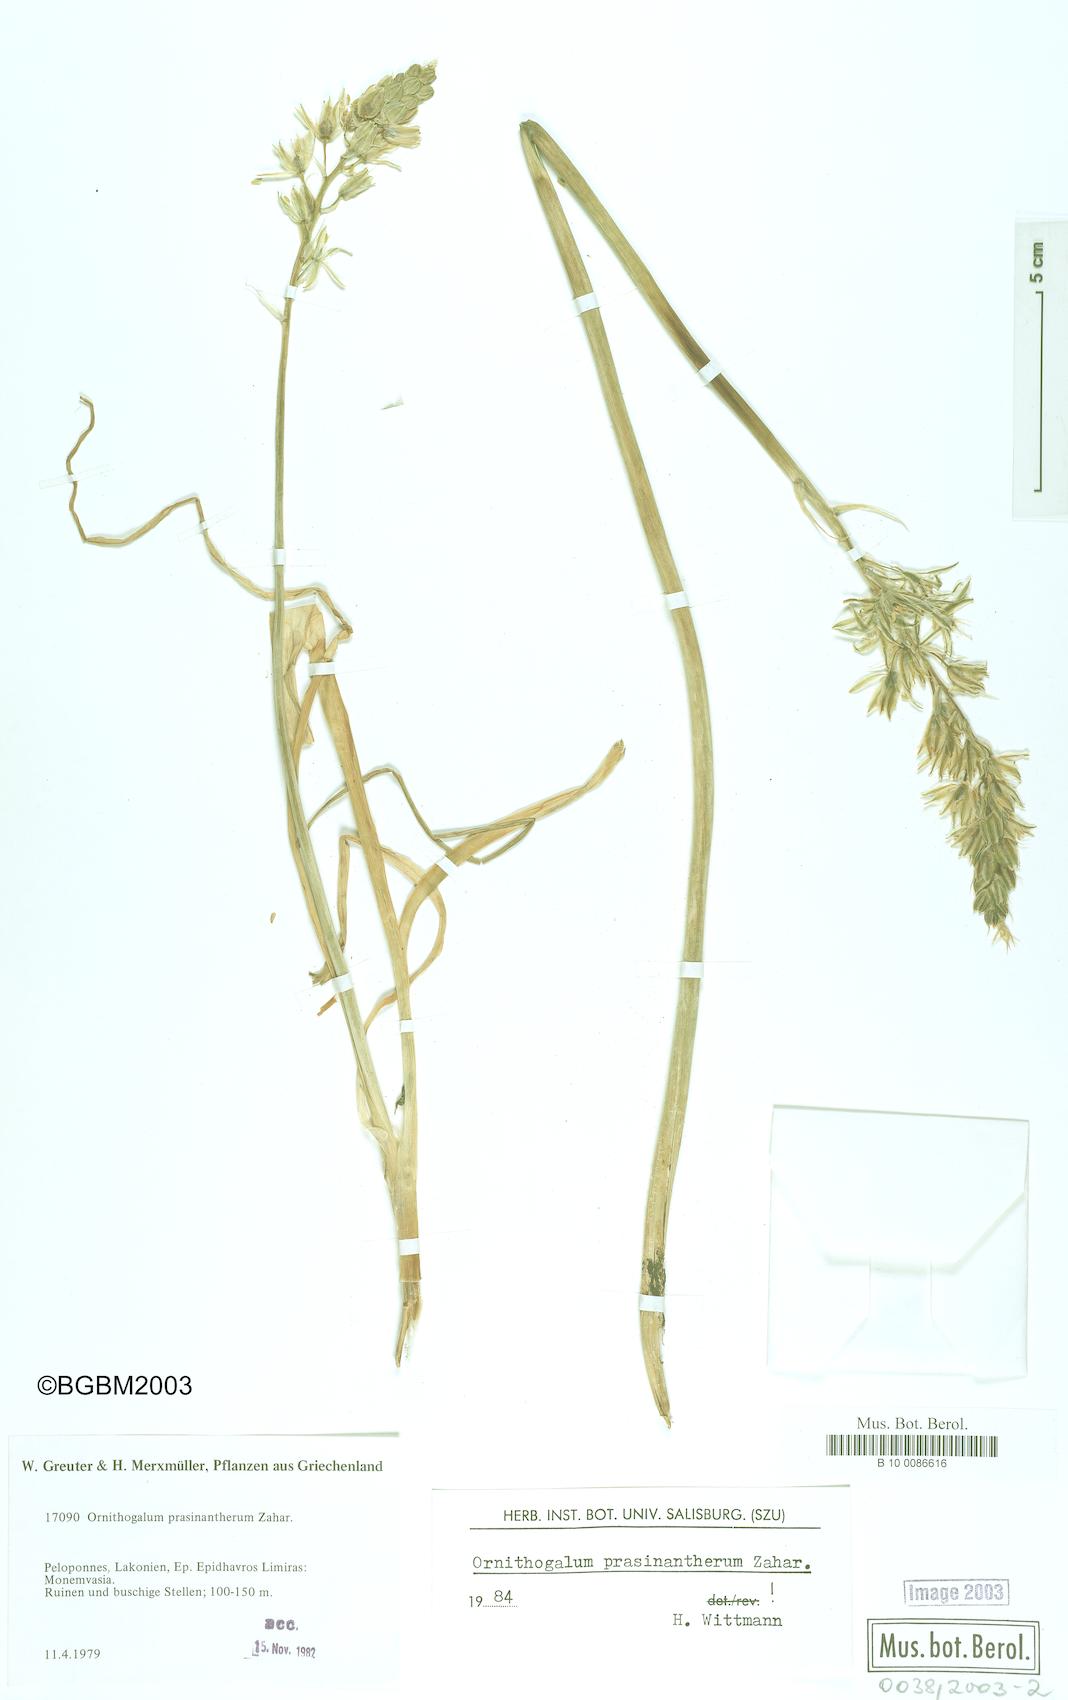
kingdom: Plantae
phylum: Tracheophyta
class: Liliopsida
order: Asparagales
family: Asparagaceae
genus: Ornithogalum
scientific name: Ornithogalum prasinantherum
